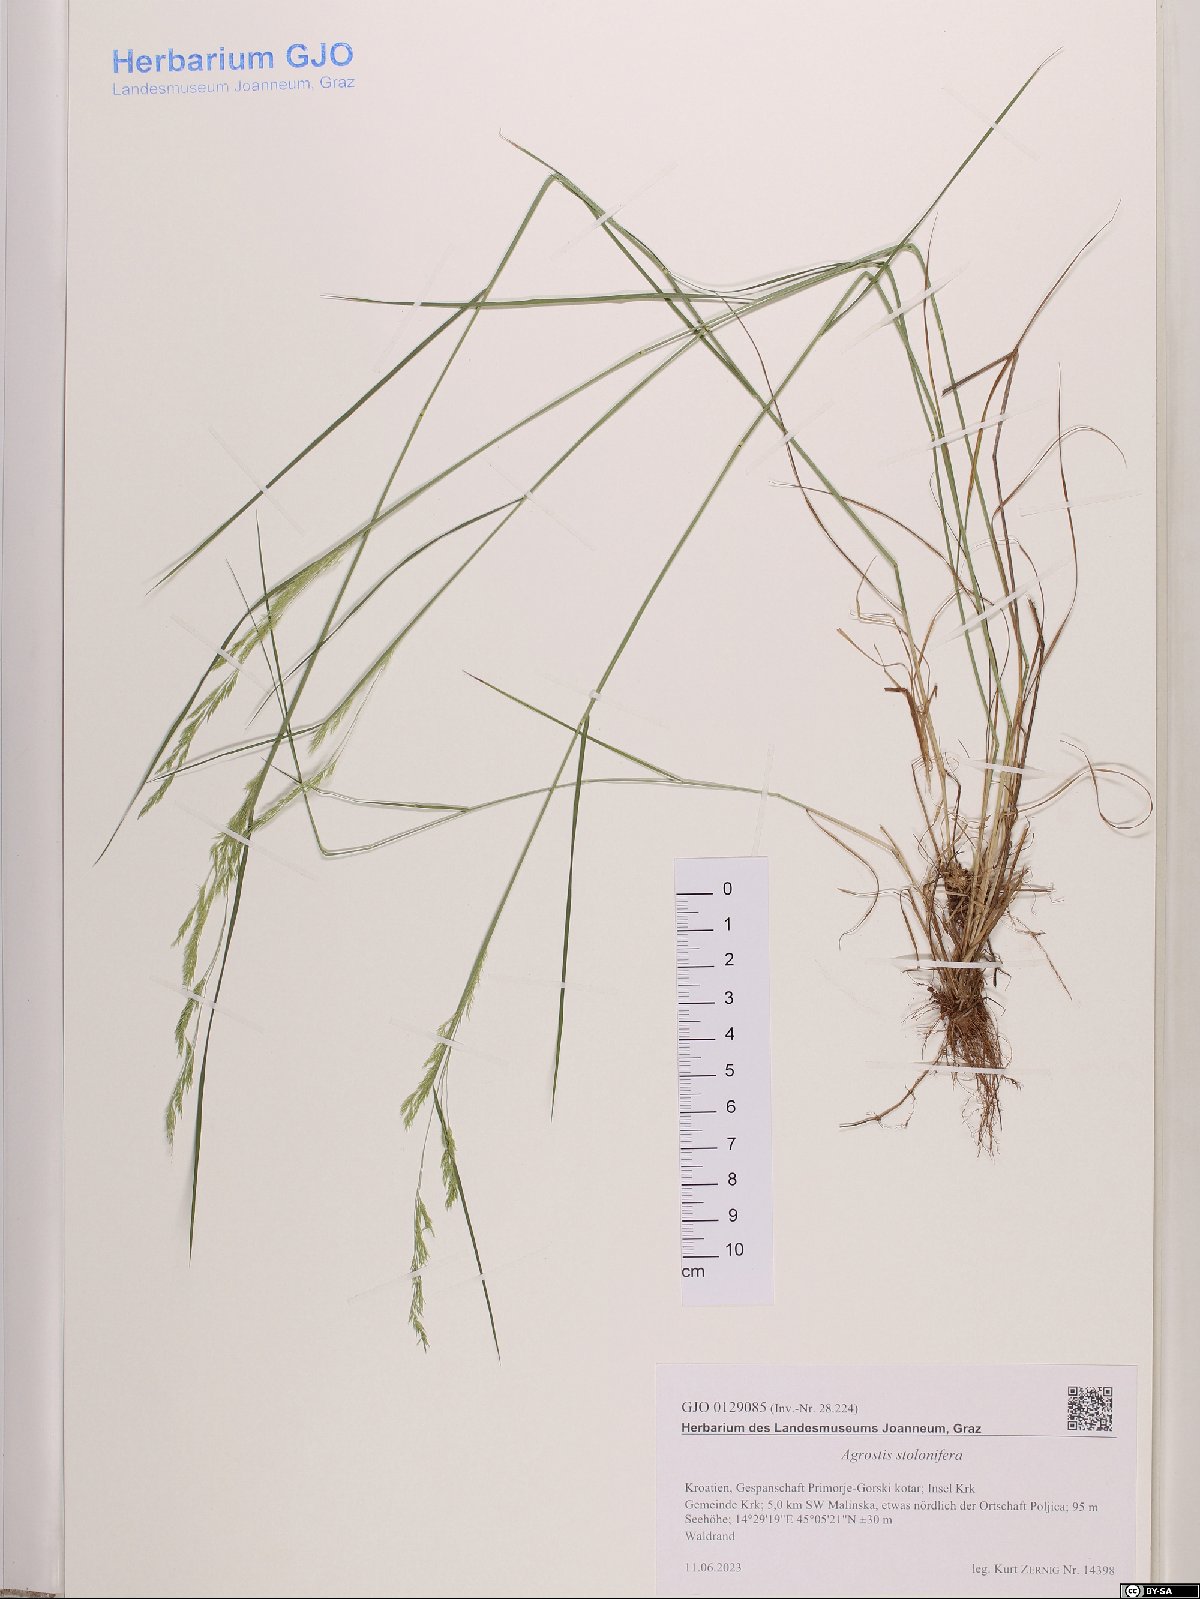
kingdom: Plantae
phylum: Tracheophyta
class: Liliopsida
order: Poales
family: Poaceae
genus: Agrostis
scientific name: Agrostis stolonifera
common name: Creeping bentgrass
